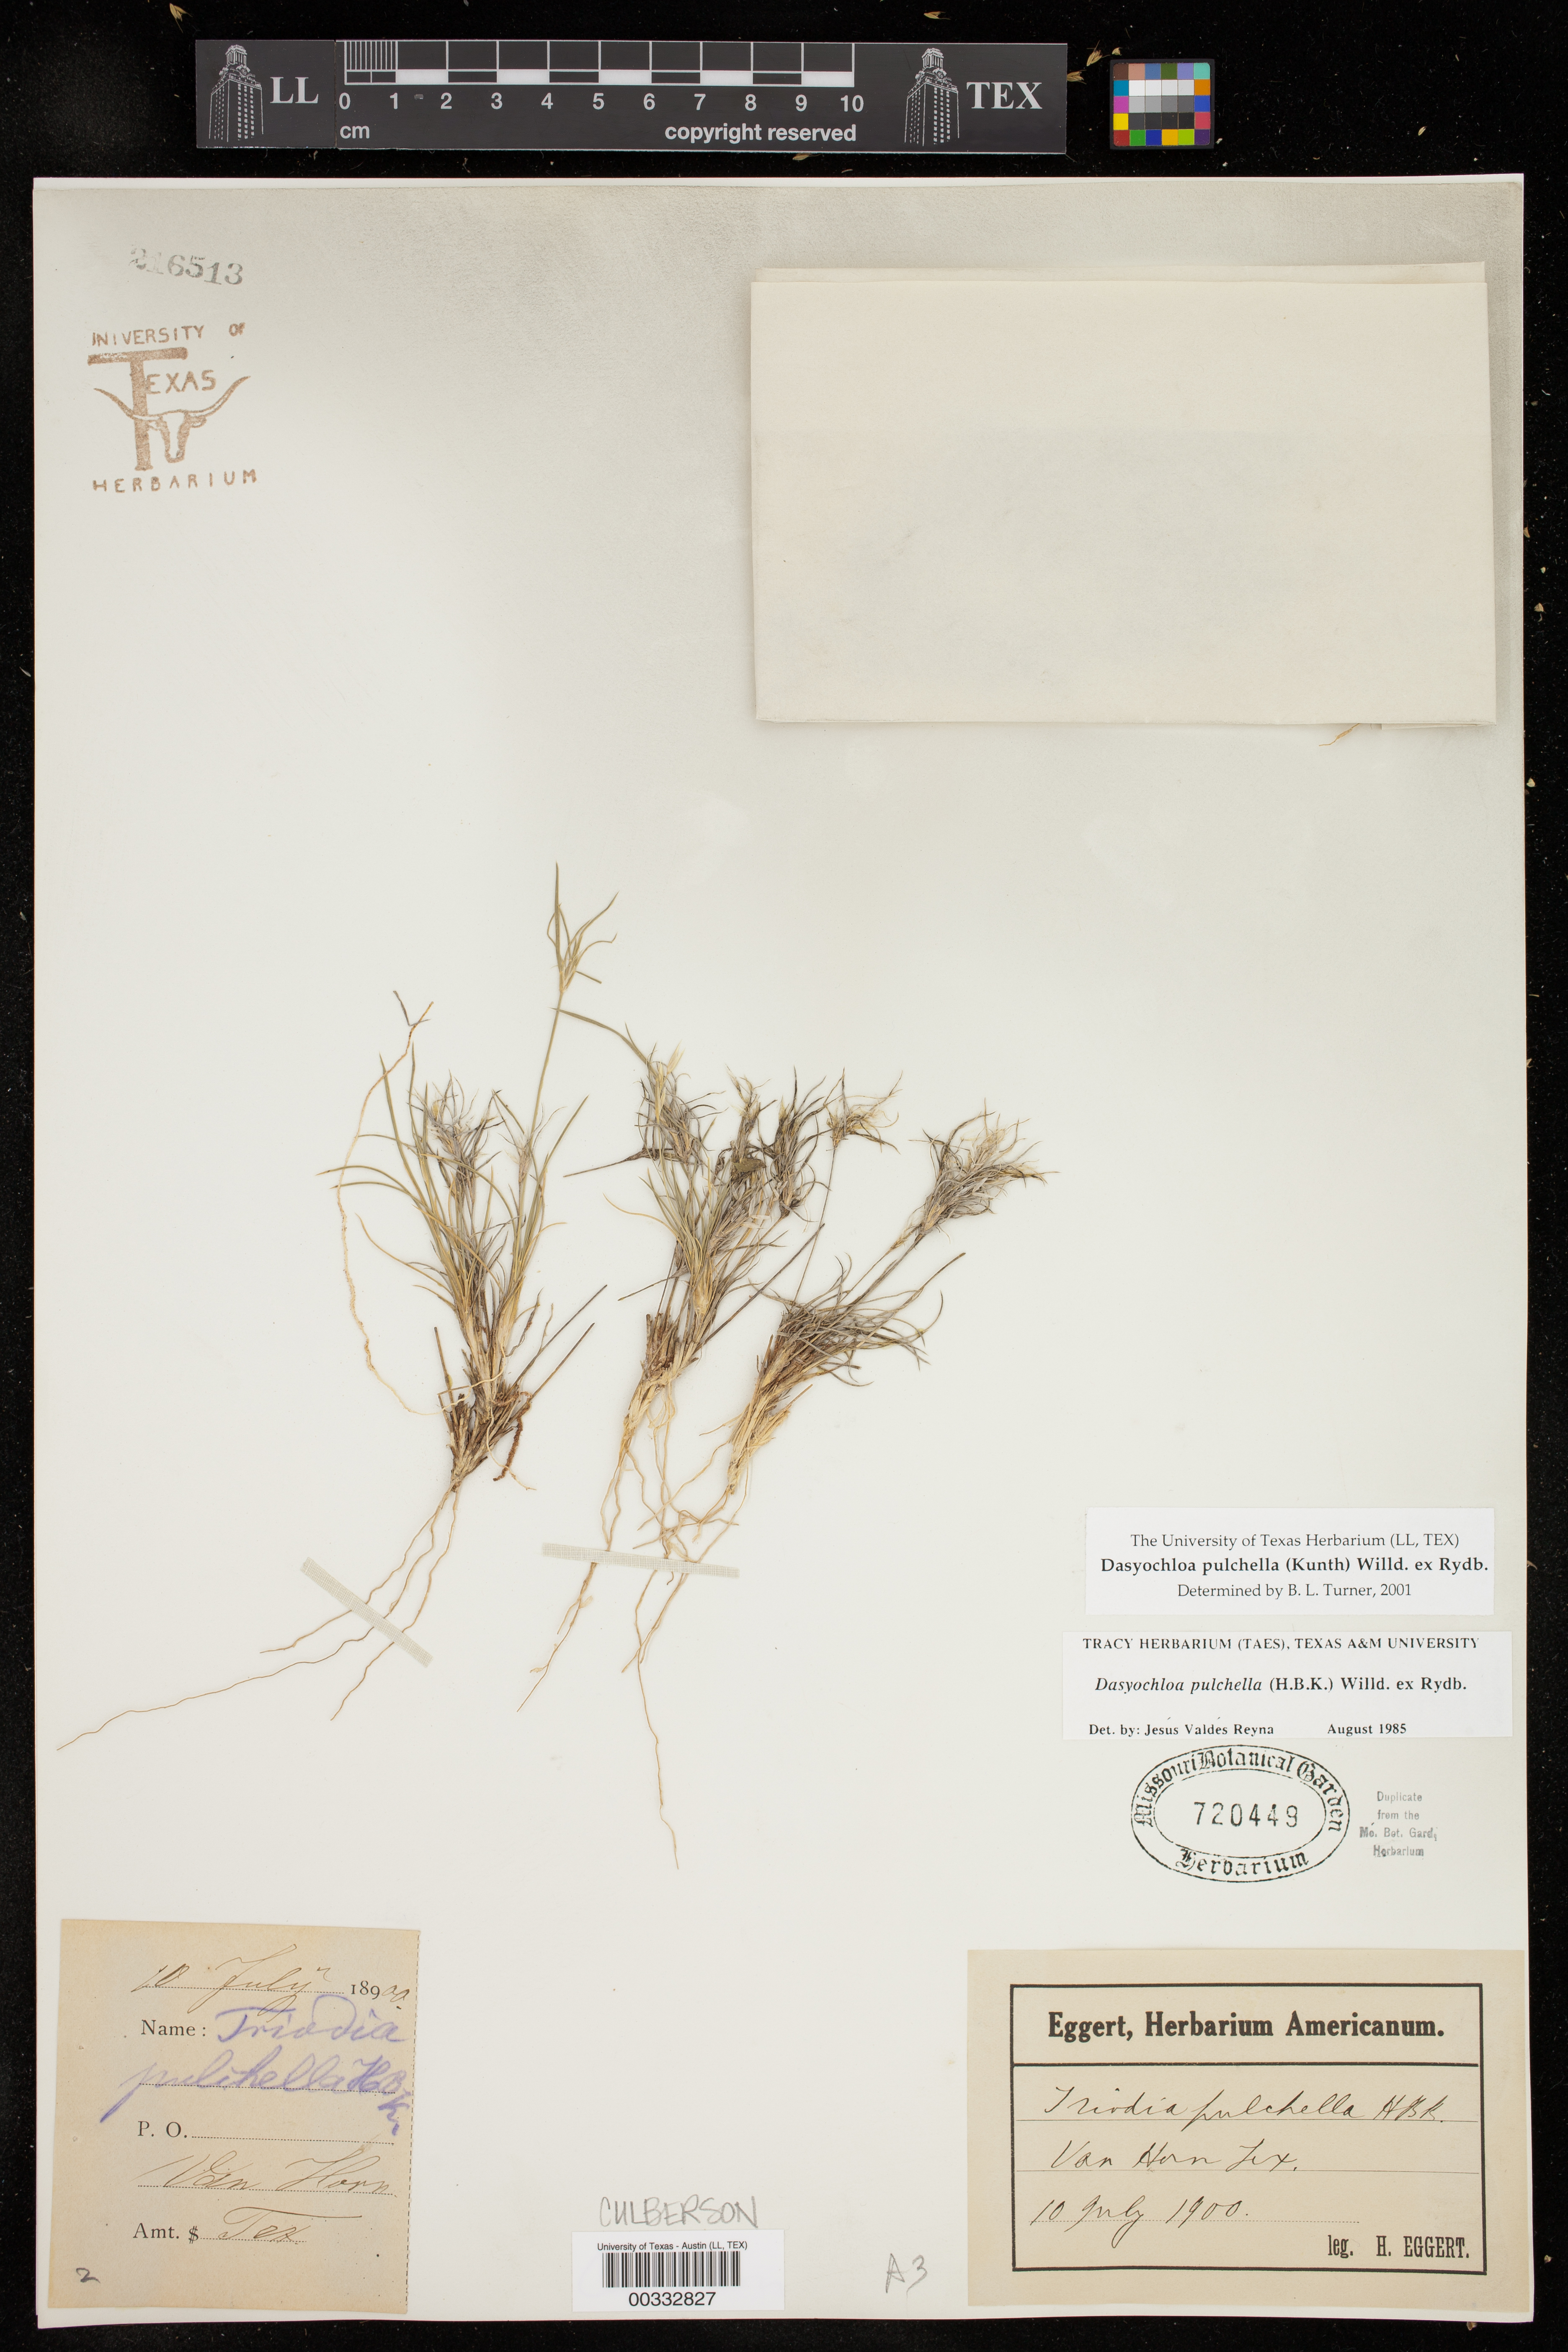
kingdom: Plantae
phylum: Tracheophyta
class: Liliopsida
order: Poales
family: Poaceae
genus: Dasyochloa
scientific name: Dasyochloa pulchella
